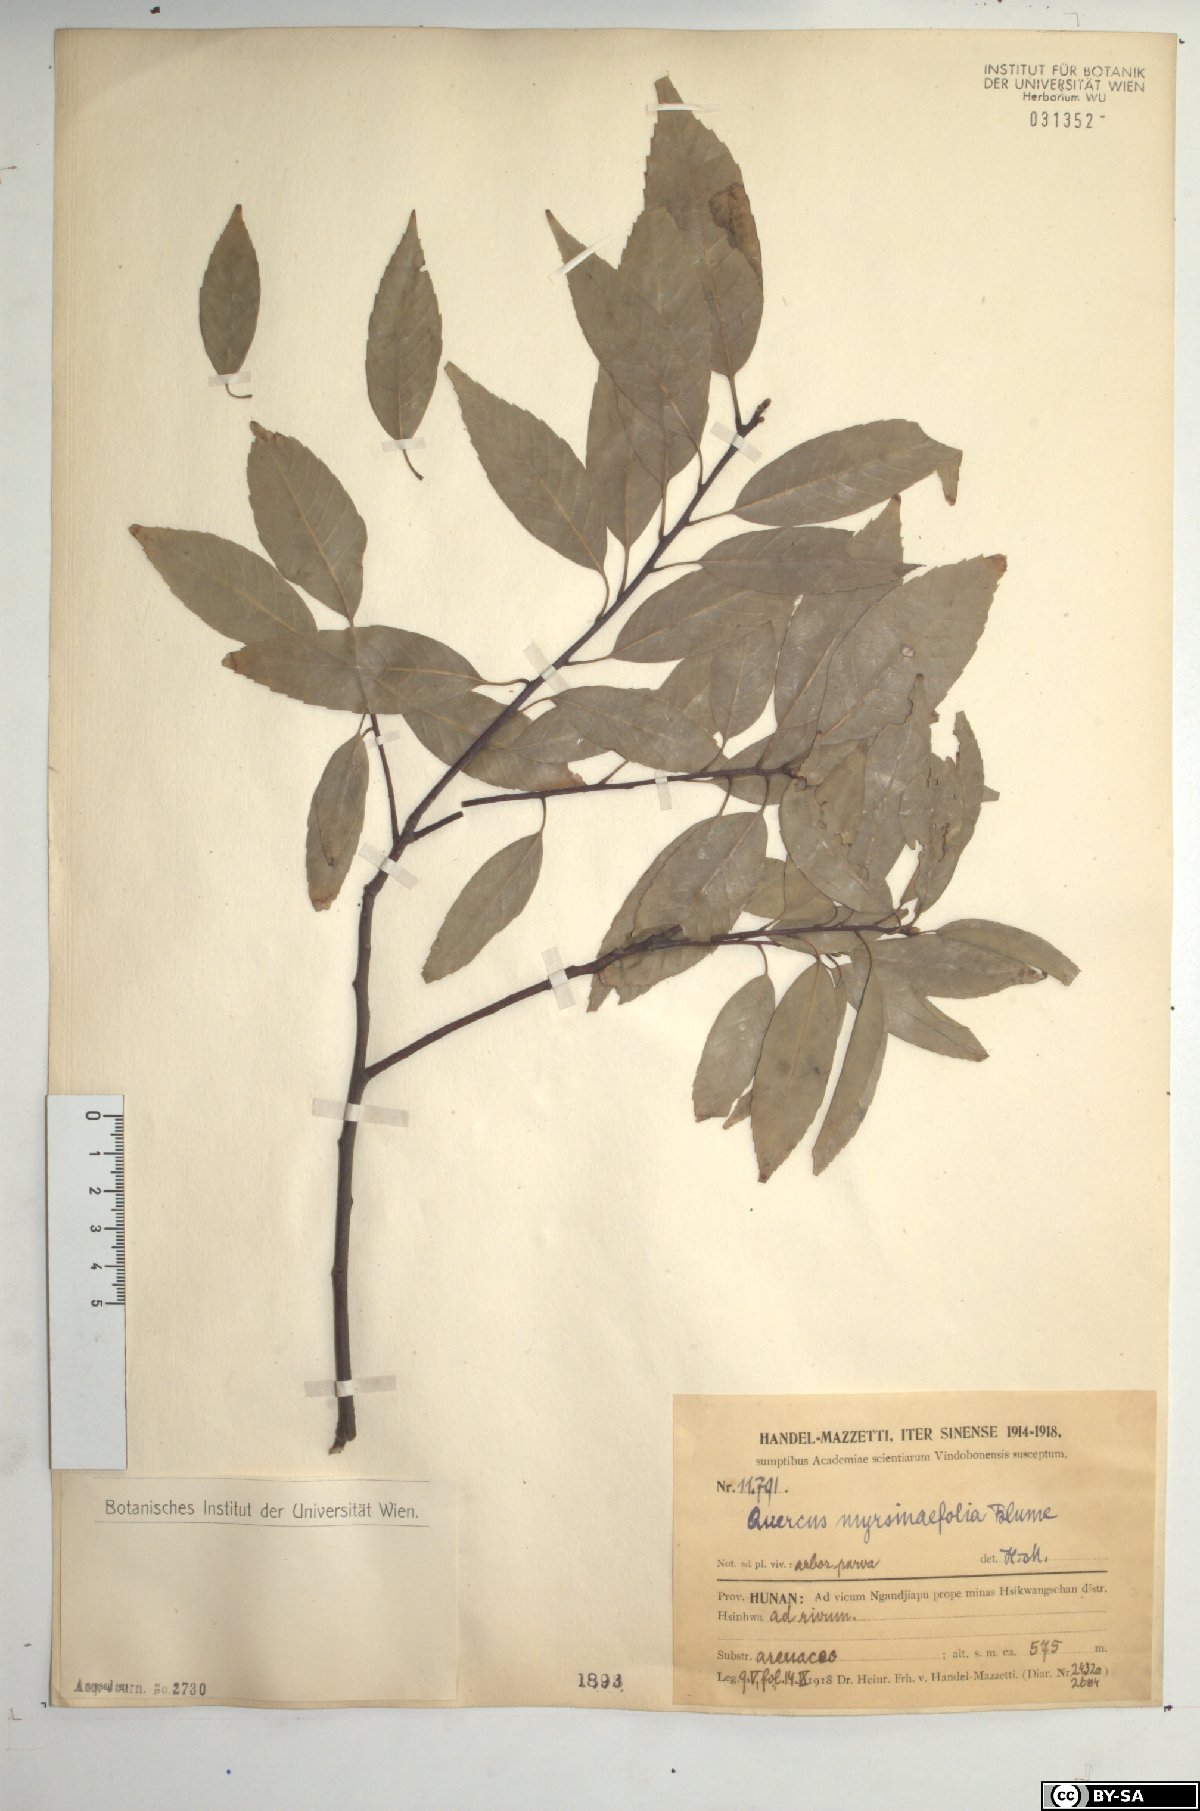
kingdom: Plantae
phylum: Tracheophyta
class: Magnoliopsida
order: Fagales
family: Fagaceae
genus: Quercus
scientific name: Quercus myrsinifolia
